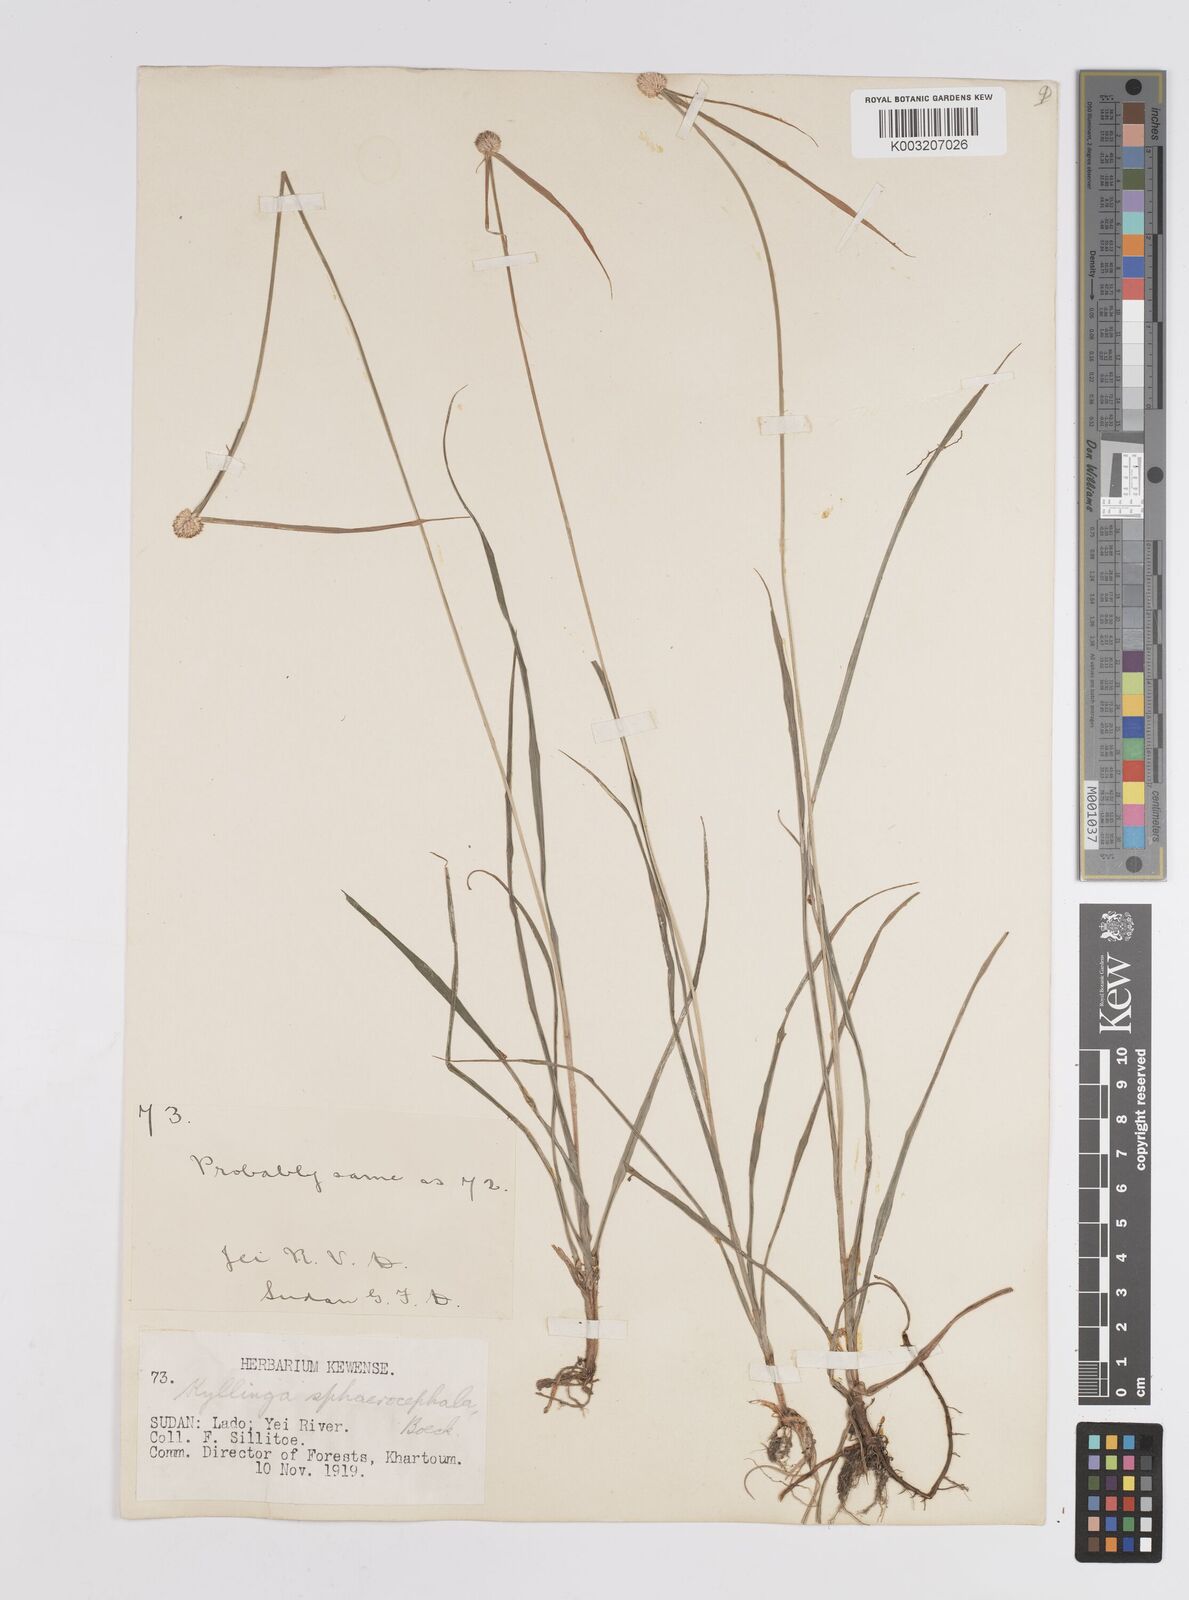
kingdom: Plantae
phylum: Tracheophyta
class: Liliopsida
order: Poales
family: Cyperaceae
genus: Cyperus
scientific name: Cyperus sphaerocephalus
